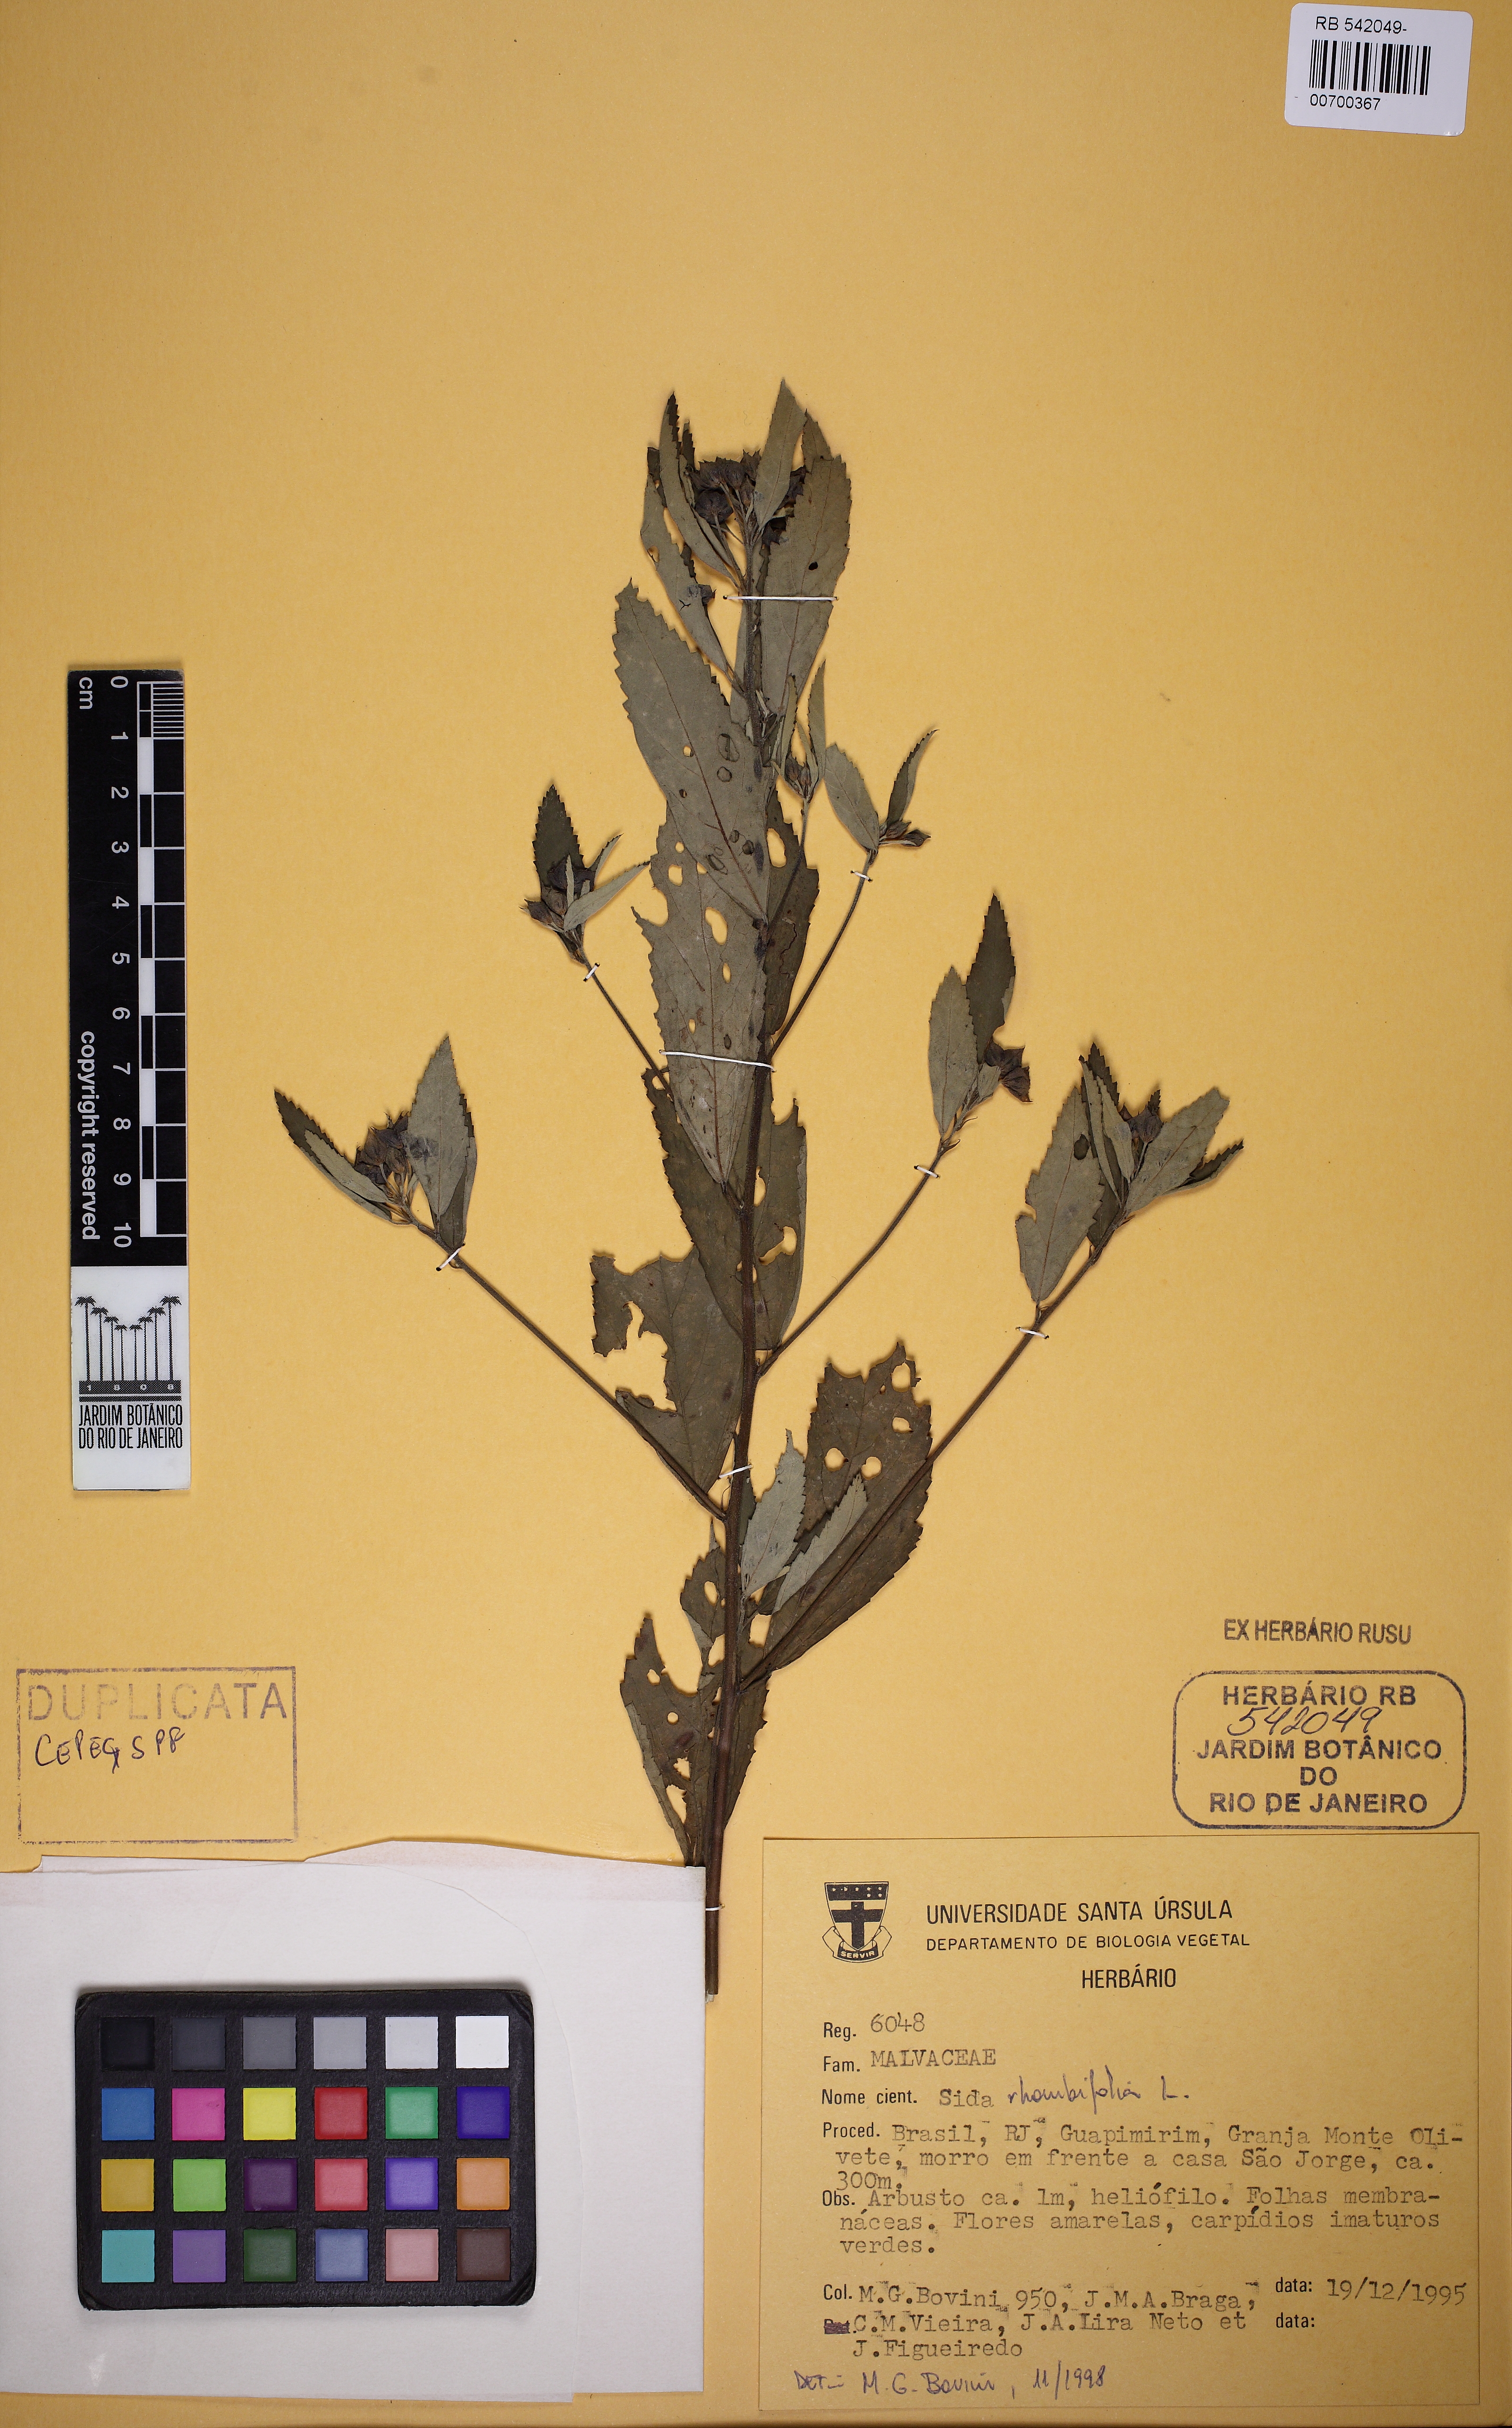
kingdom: Plantae
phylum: Tracheophyta
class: Magnoliopsida
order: Malvales
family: Malvaceae
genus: Sida
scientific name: Sida rhombifolia
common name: Queensland-hemp
